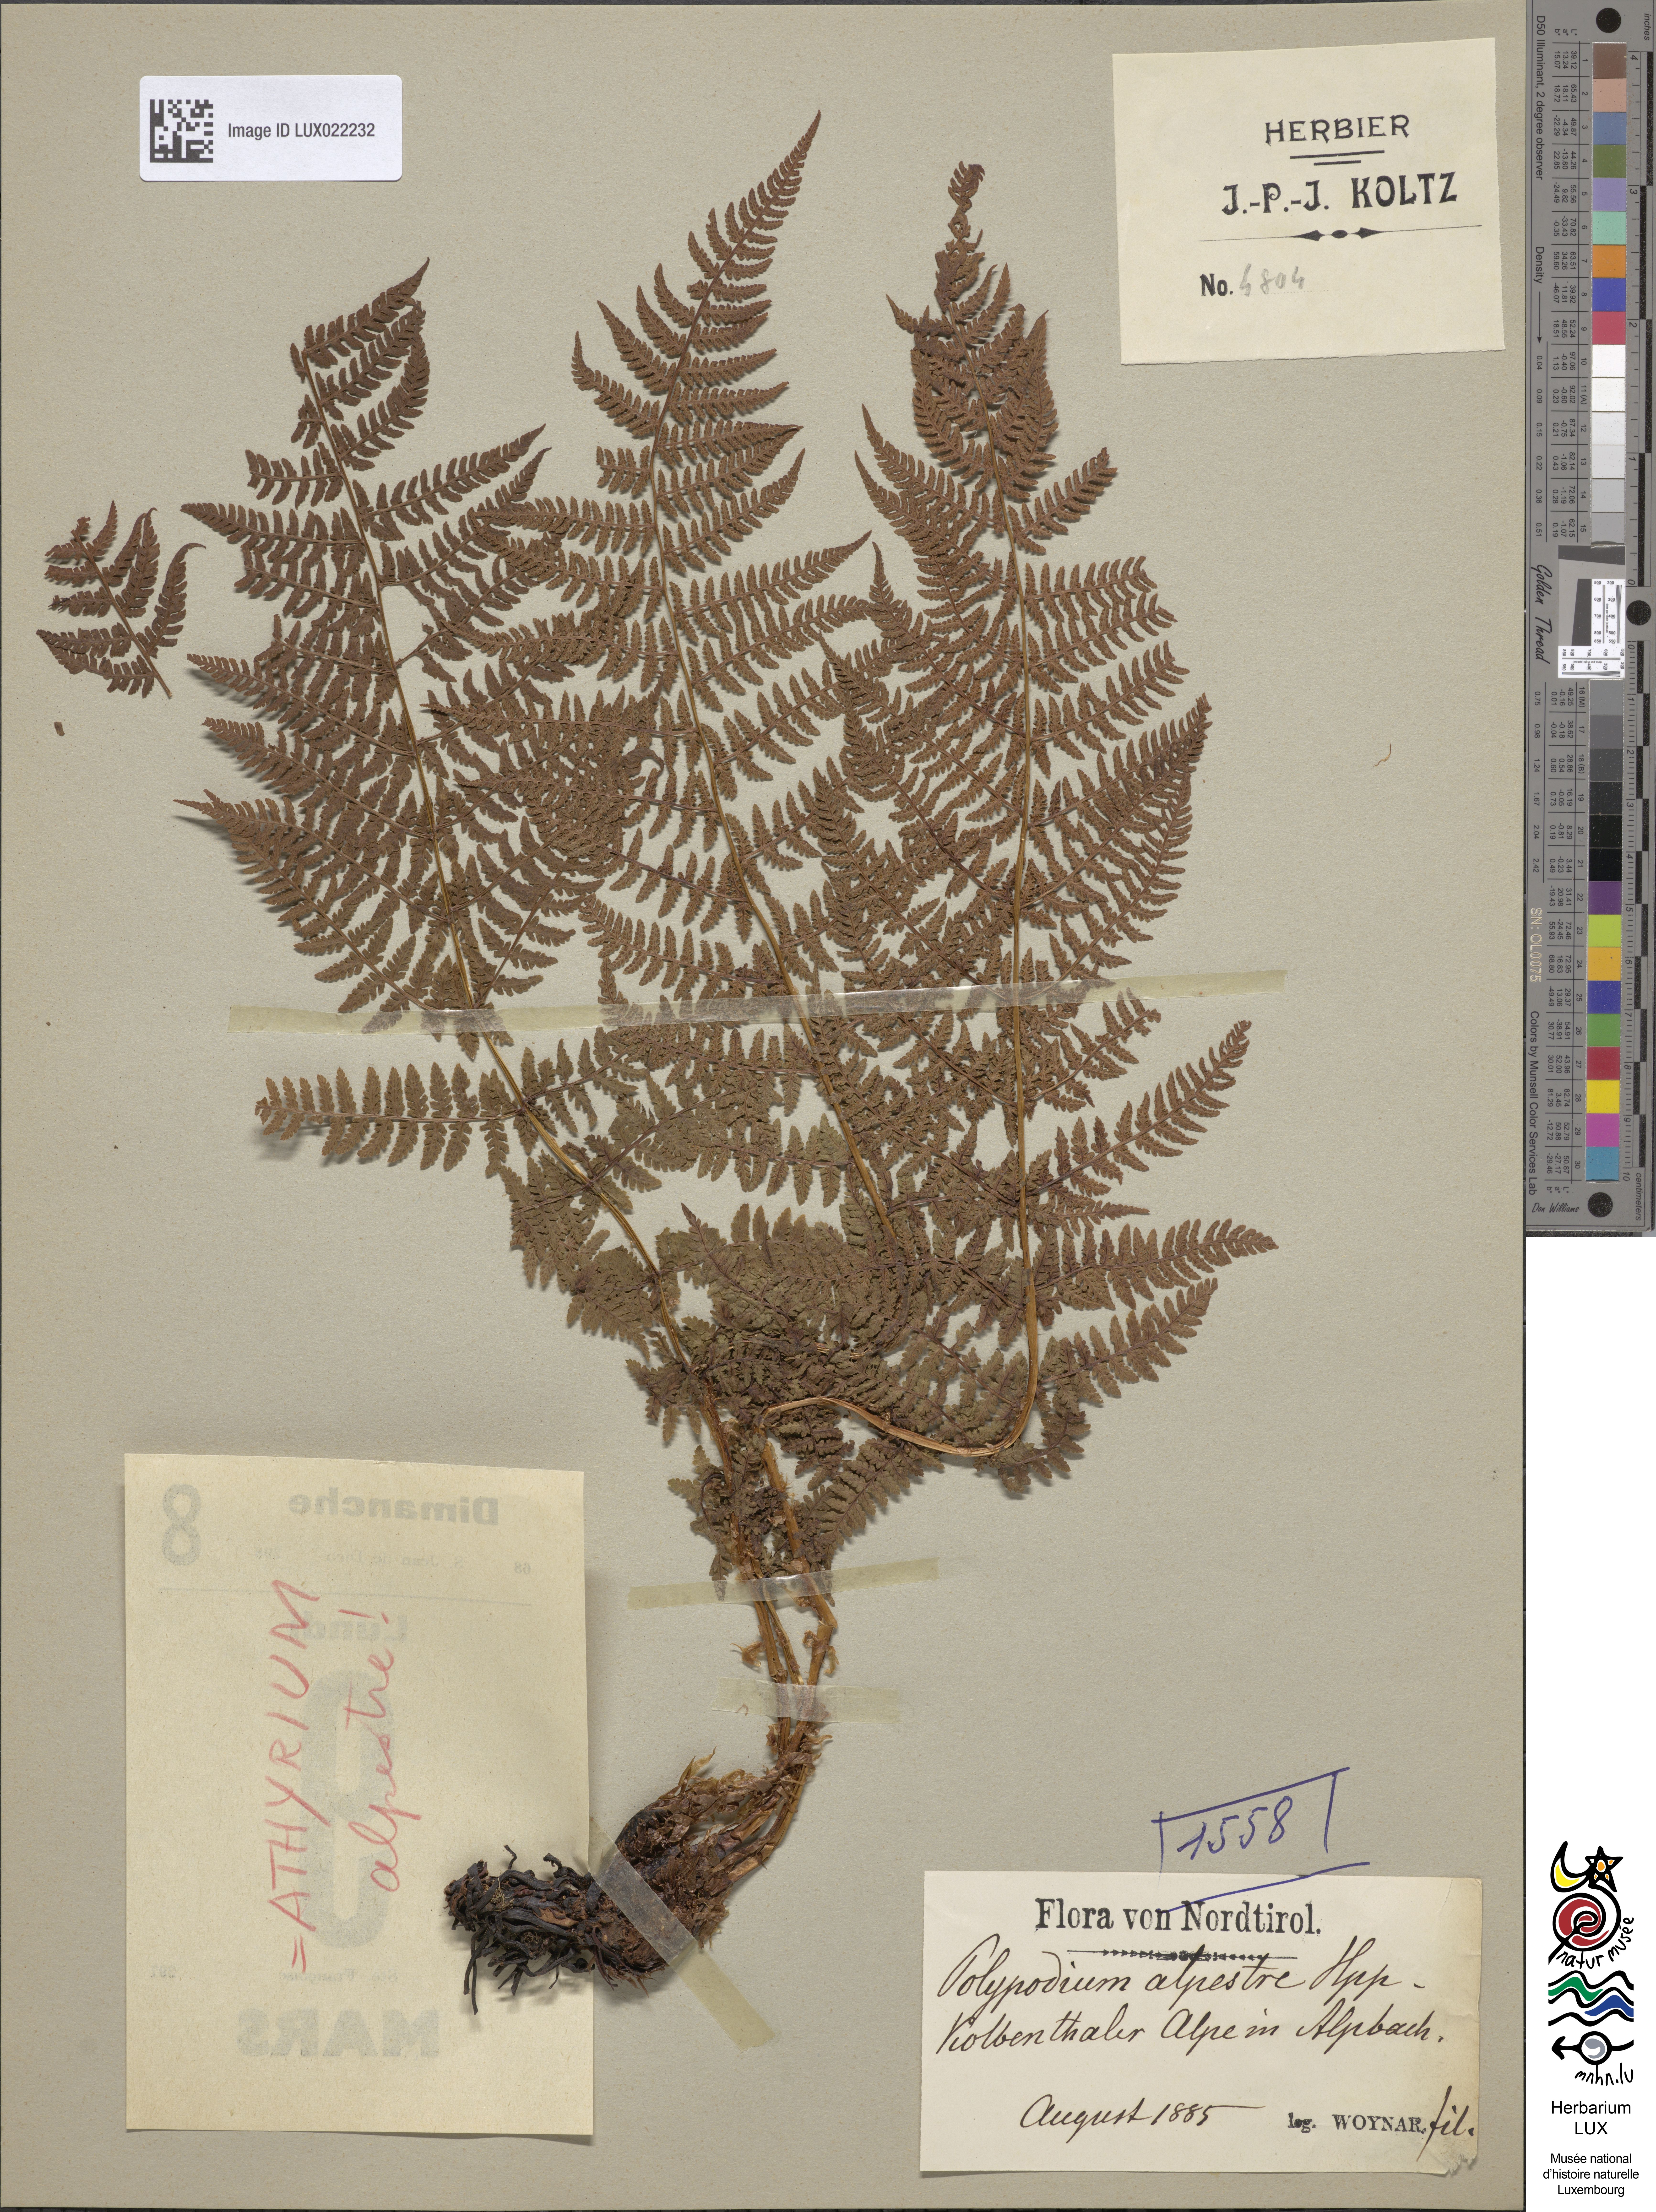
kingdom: Plantae
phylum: Tracheophyta
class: Polypodiopsida
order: Polypodiales
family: Polypodiaceae
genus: Polypodium
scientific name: Polypodium
